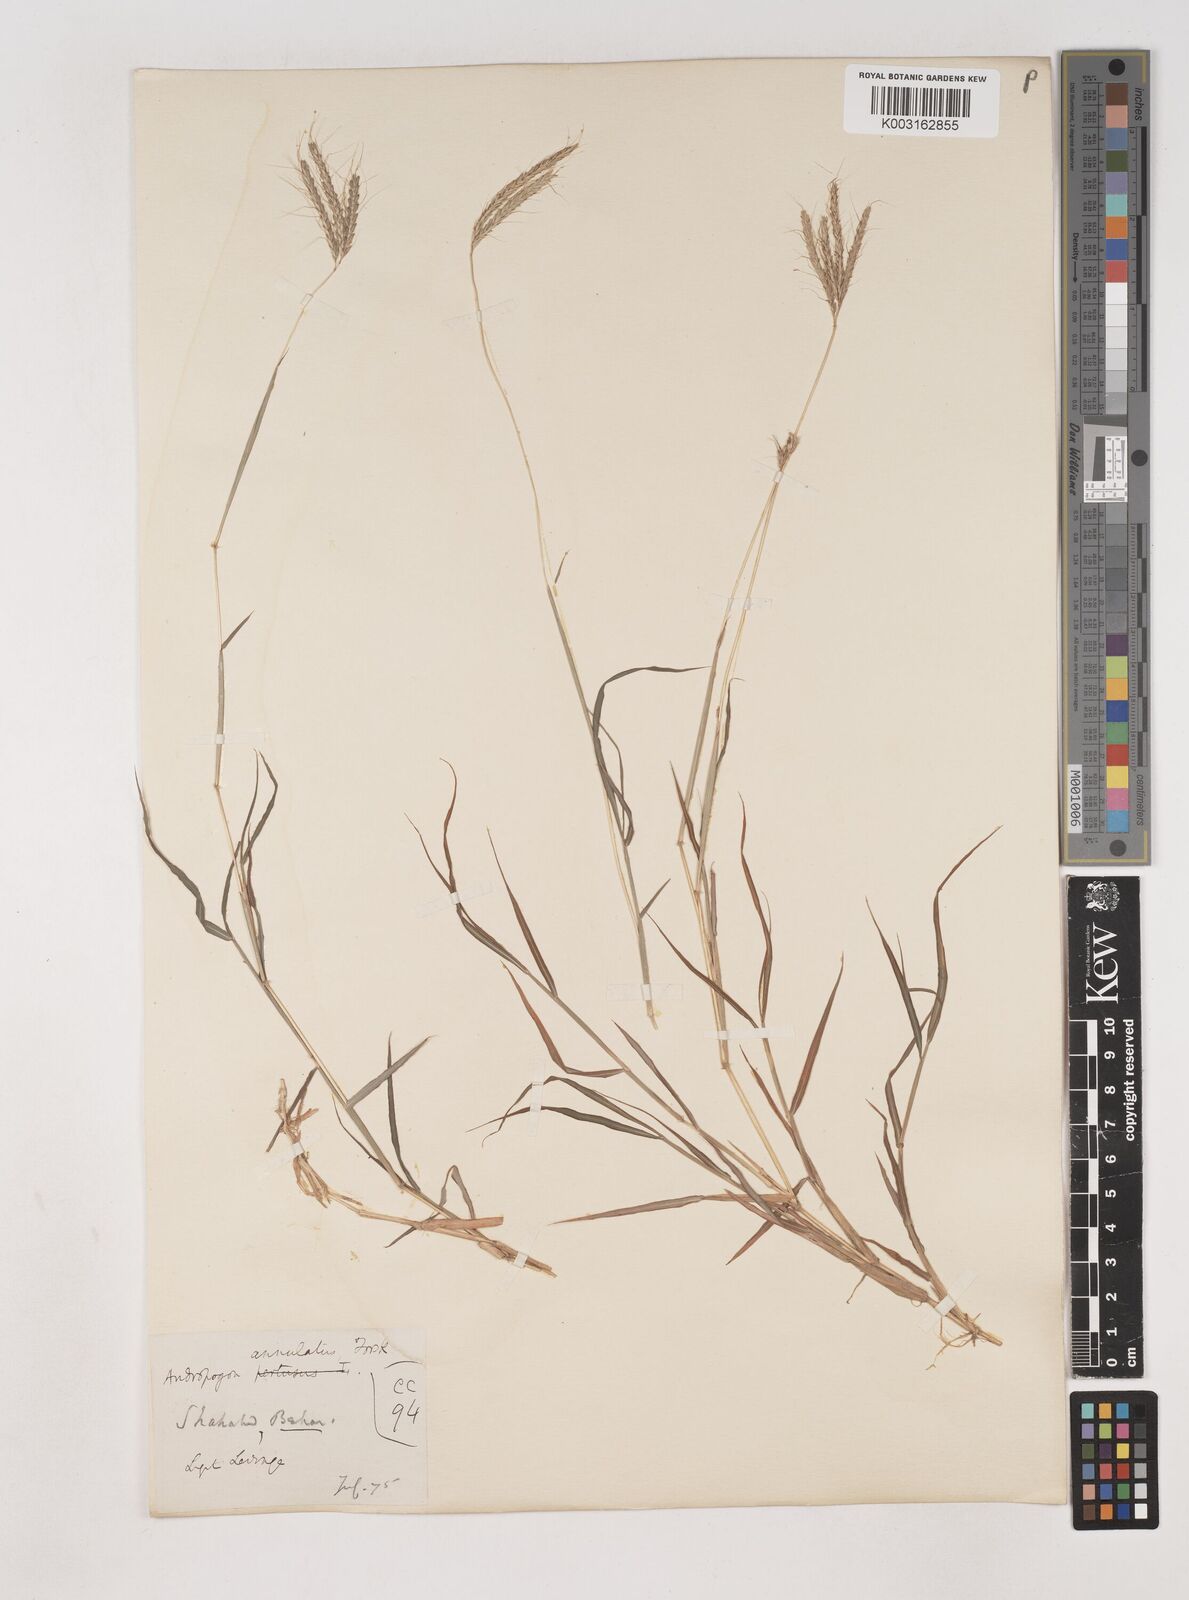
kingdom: Plantae
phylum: Tracheophyta
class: Liliopsida
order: Poales
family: Poaceae
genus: Dichanthium
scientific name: Dichanthium annulatum
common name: Kleberg's bluestem
